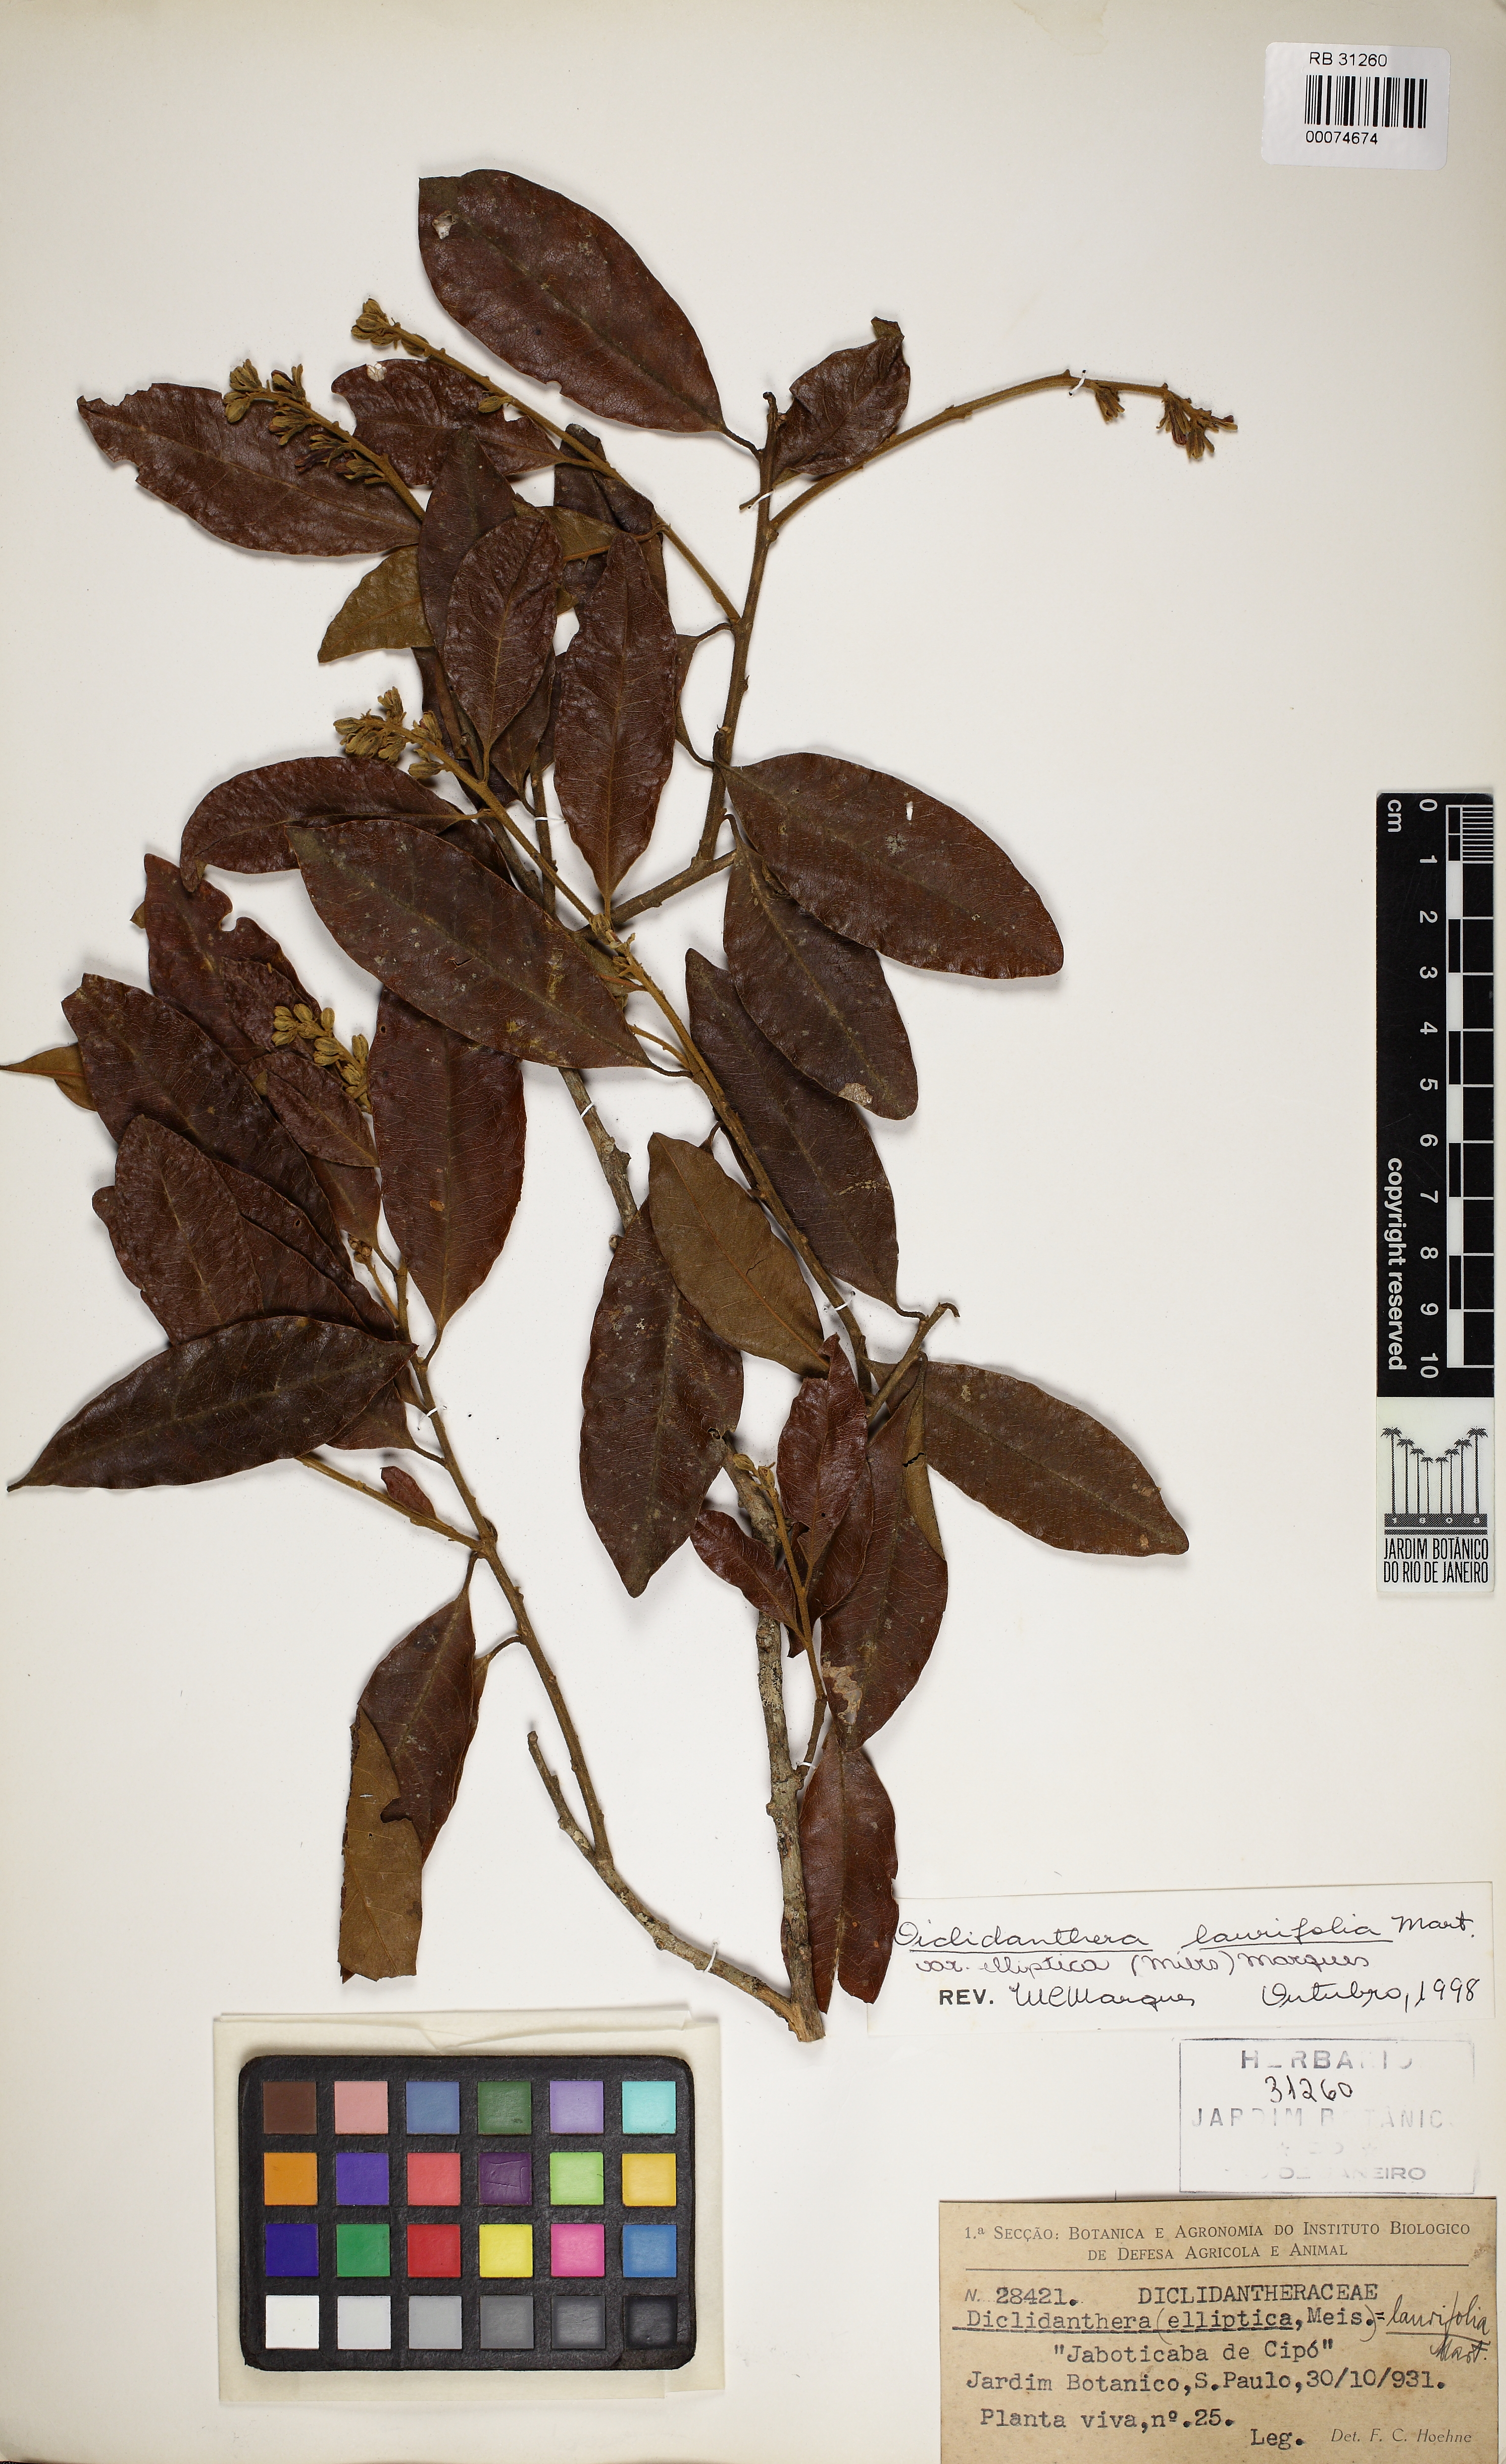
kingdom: Plantae
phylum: Tracheophyta
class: Magnoliopsida
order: Fabales
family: Polygalaceae
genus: Diclidanthera
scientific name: Diclidanthera laurifolia
